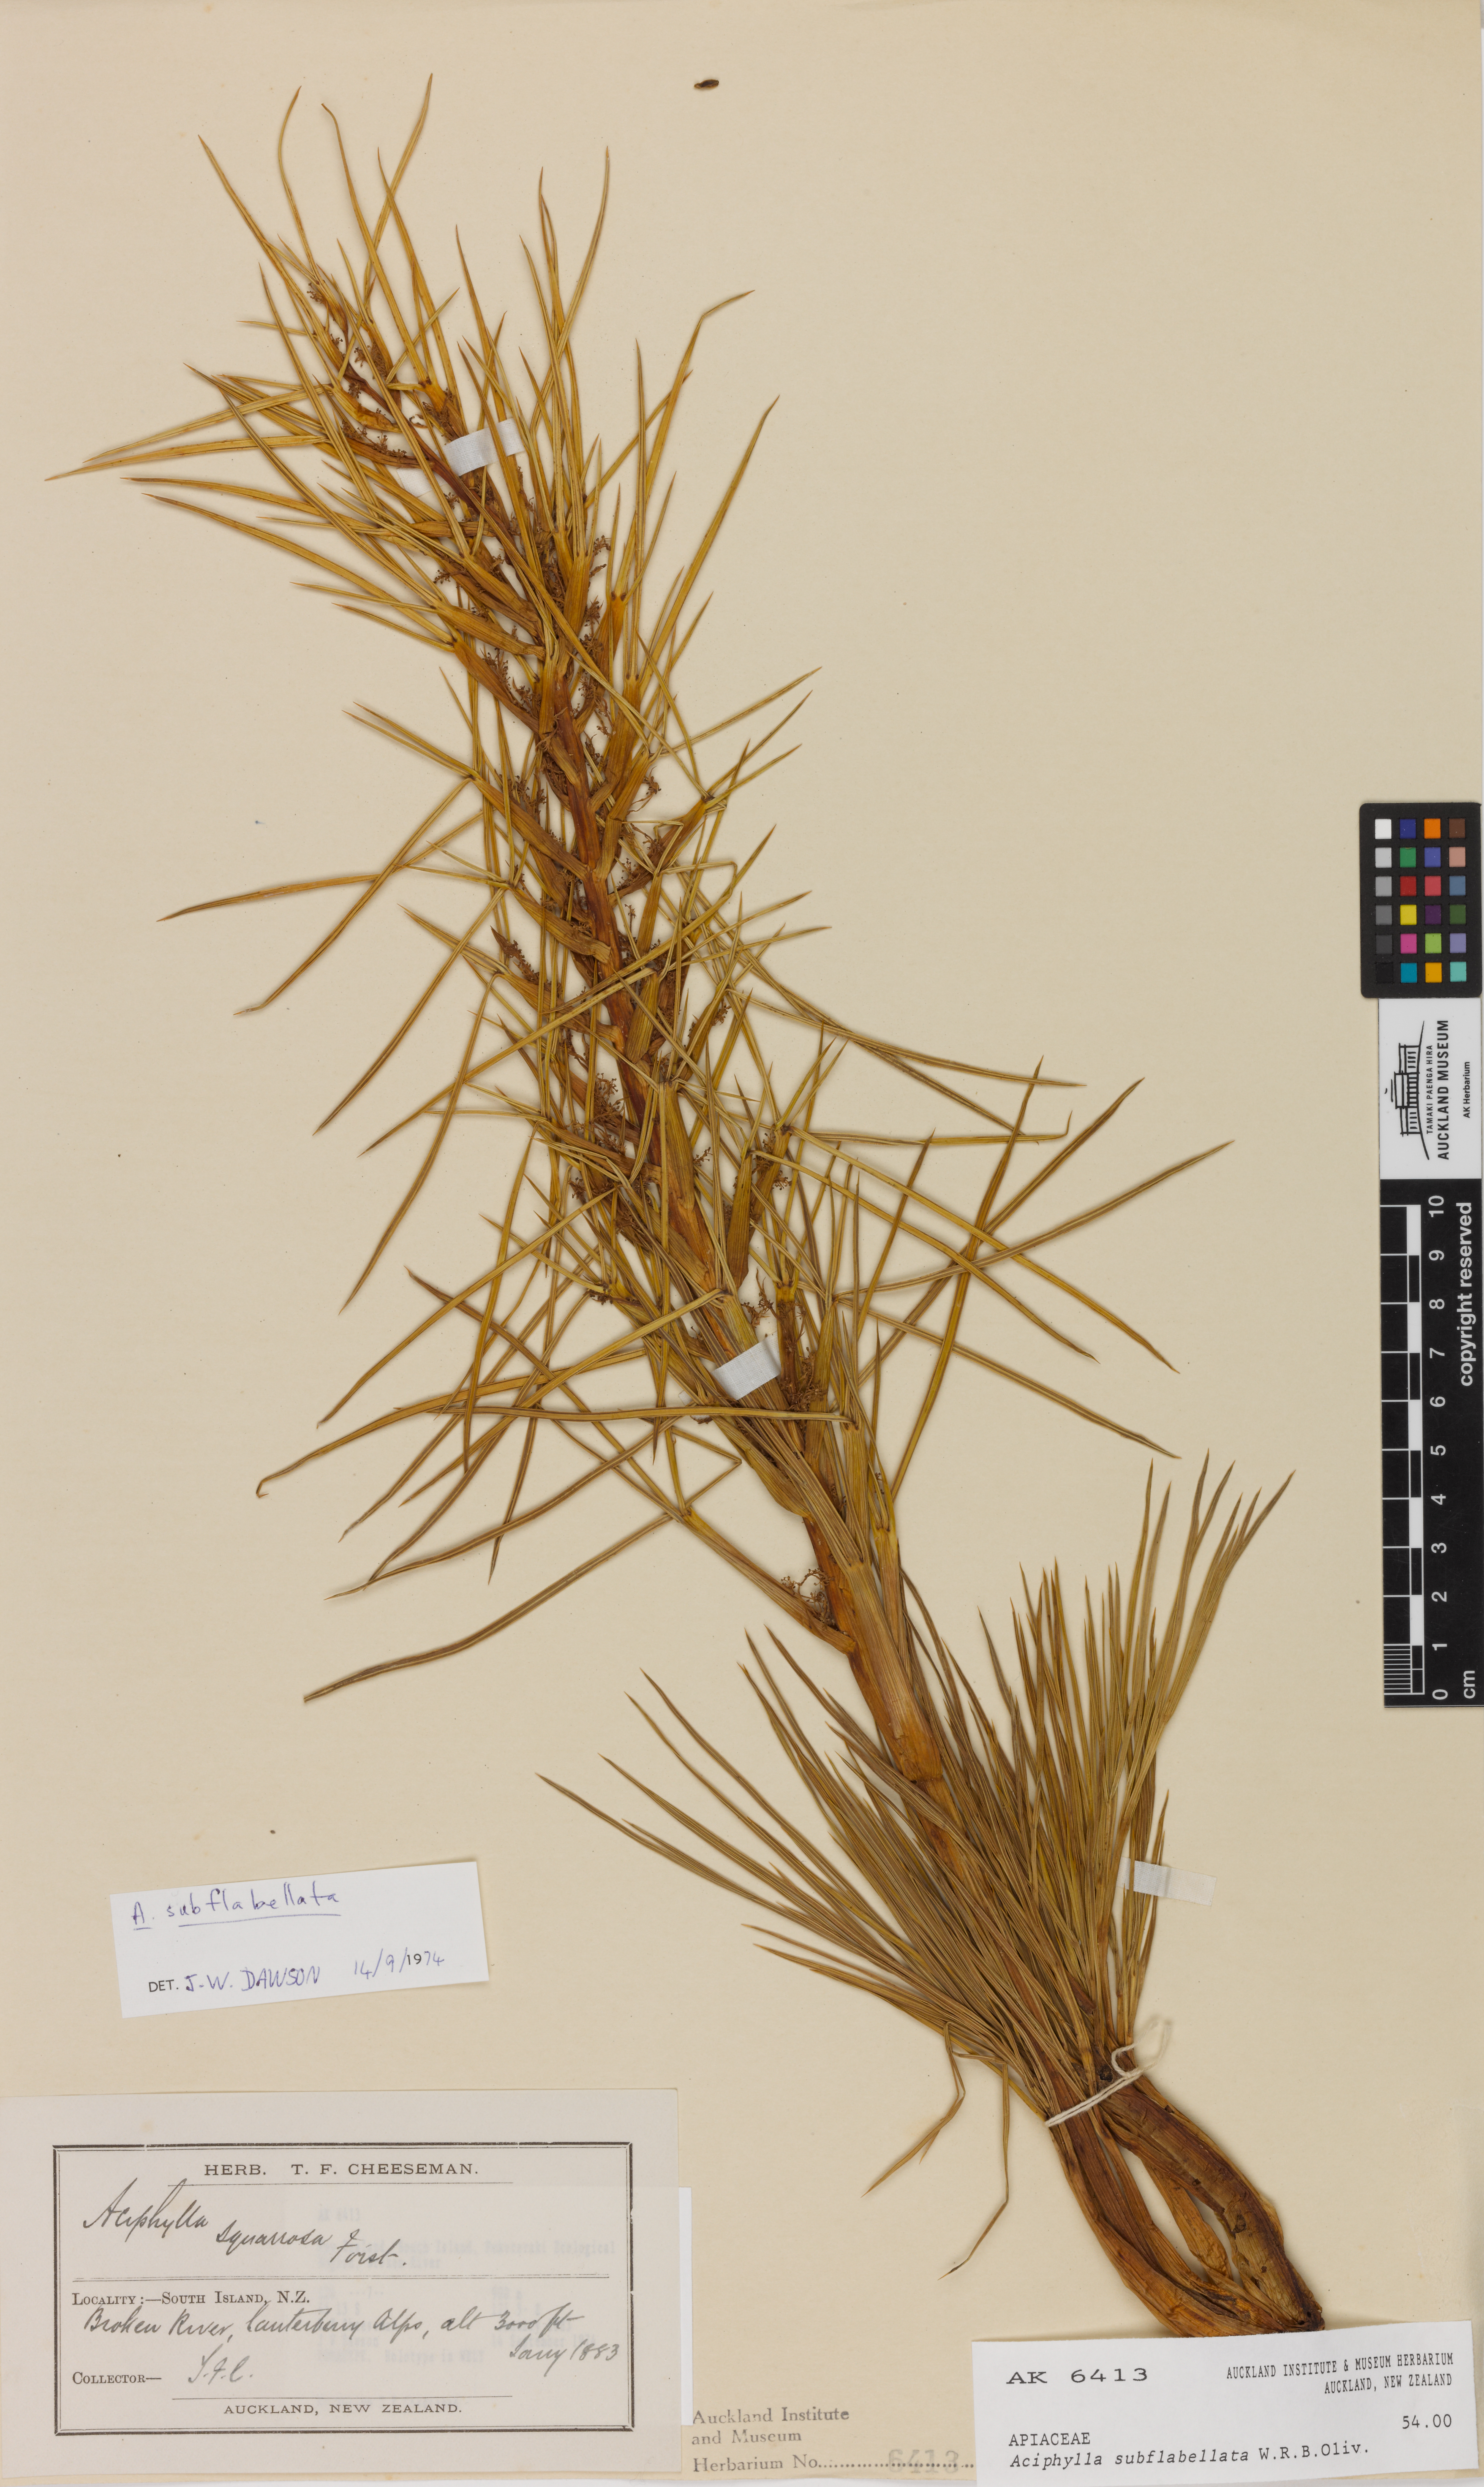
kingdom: Plantae
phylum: Tracheophyta
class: Magnoliopsida
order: Apiales
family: Apiaceae
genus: Aciphylla
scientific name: Aciphylla subflabellata
